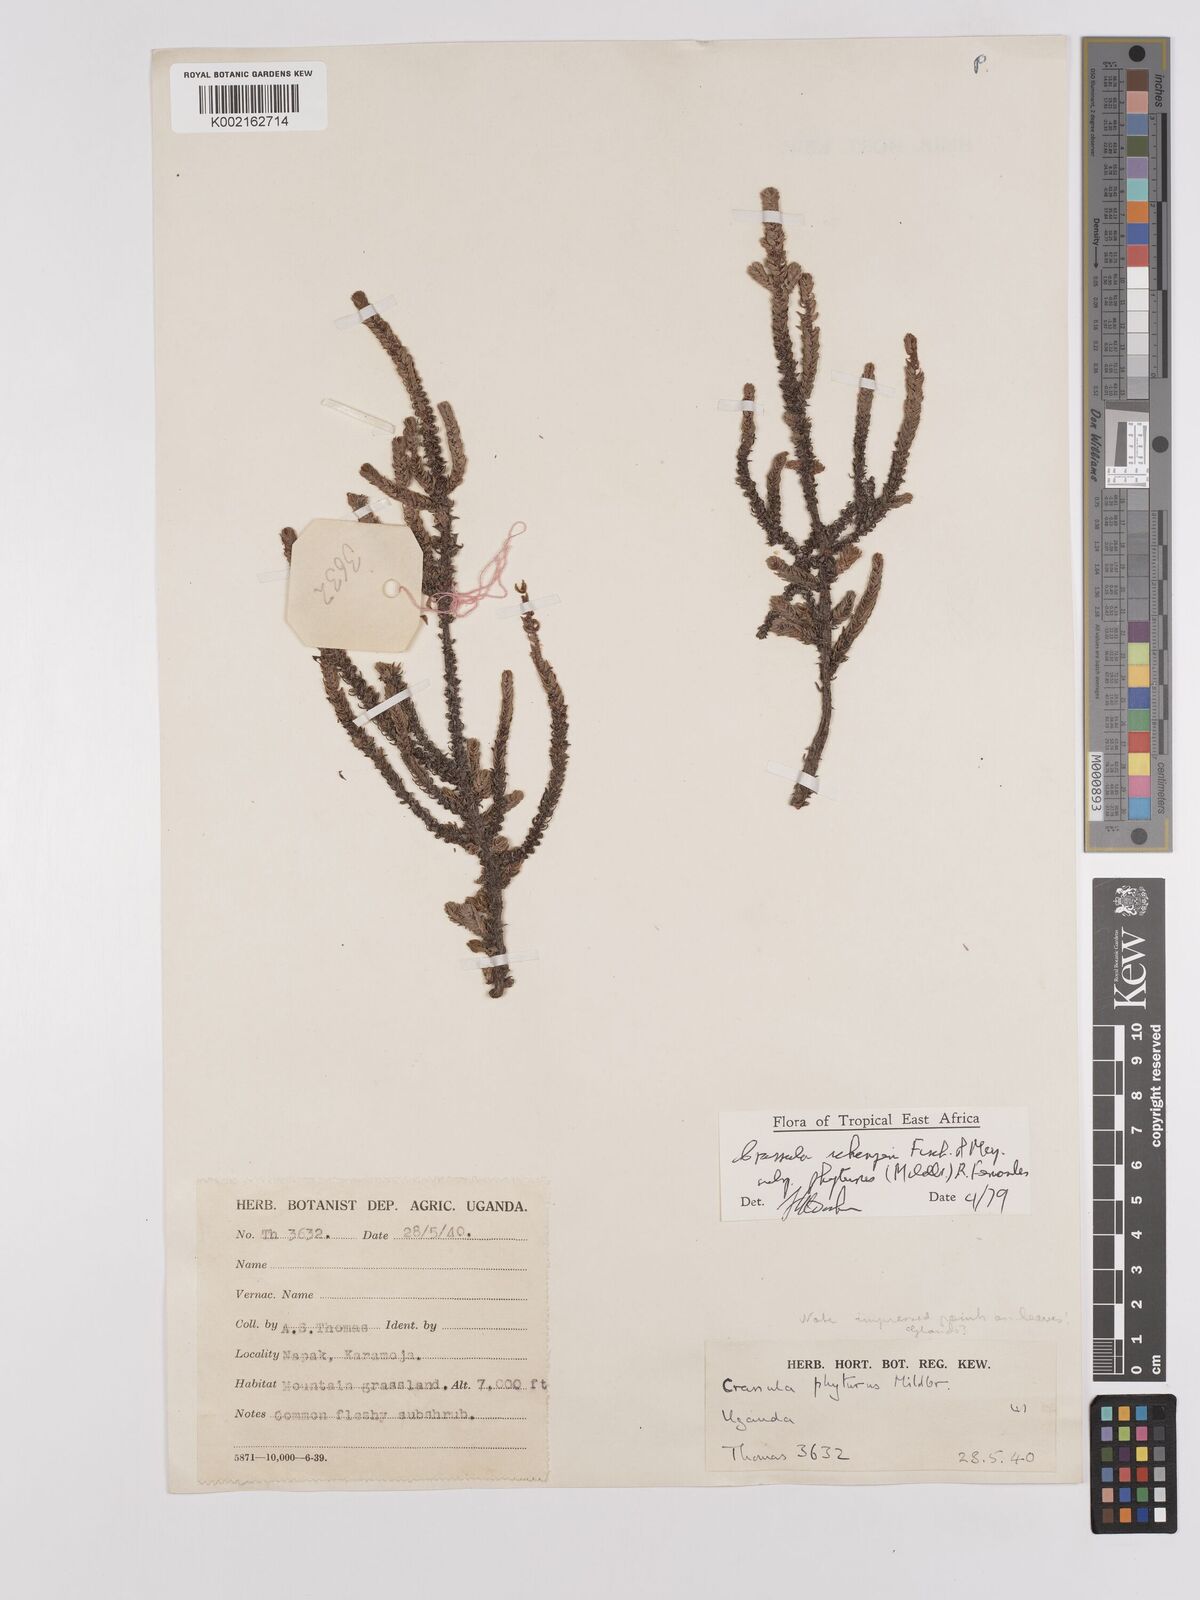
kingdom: Plantae
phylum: Tracheophyta
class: Magnoliopsida
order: Saxifragales
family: Crassulaceae
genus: Crassula
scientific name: Crassula schimperi
